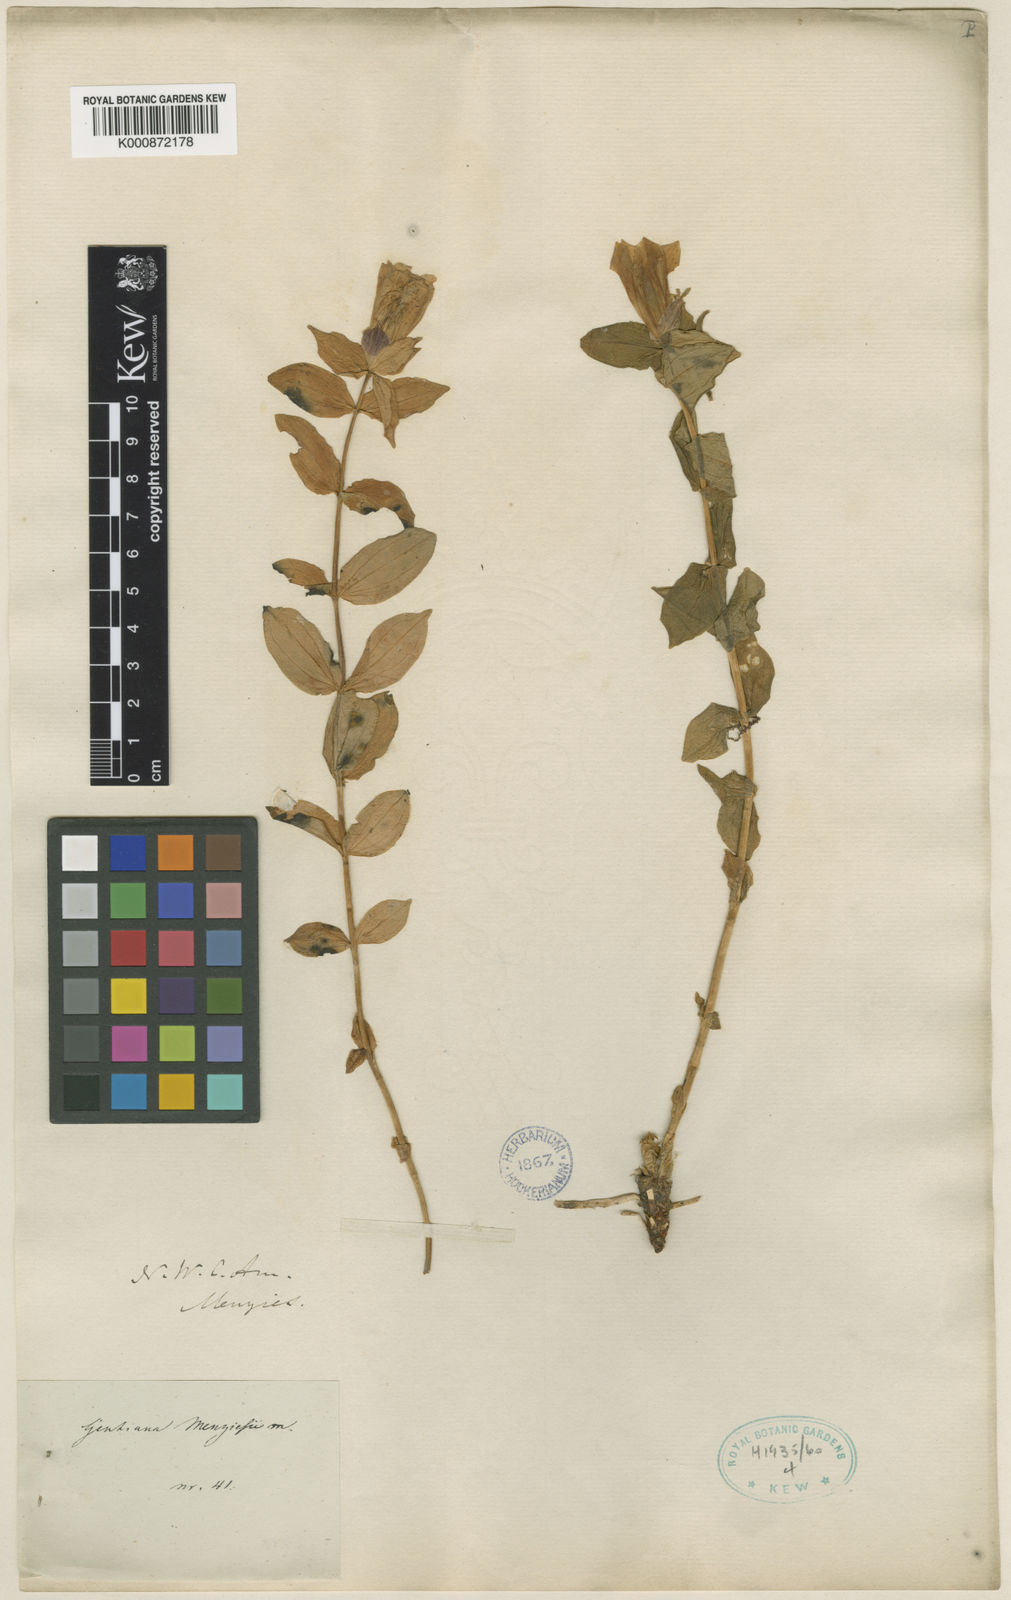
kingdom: Plantae
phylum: Tracheophyta
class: Magnoliopsida
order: Gentianales
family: Gentianaceae
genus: Gentiana
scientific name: Gentiana platypetala
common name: Broad-petalled gentian
